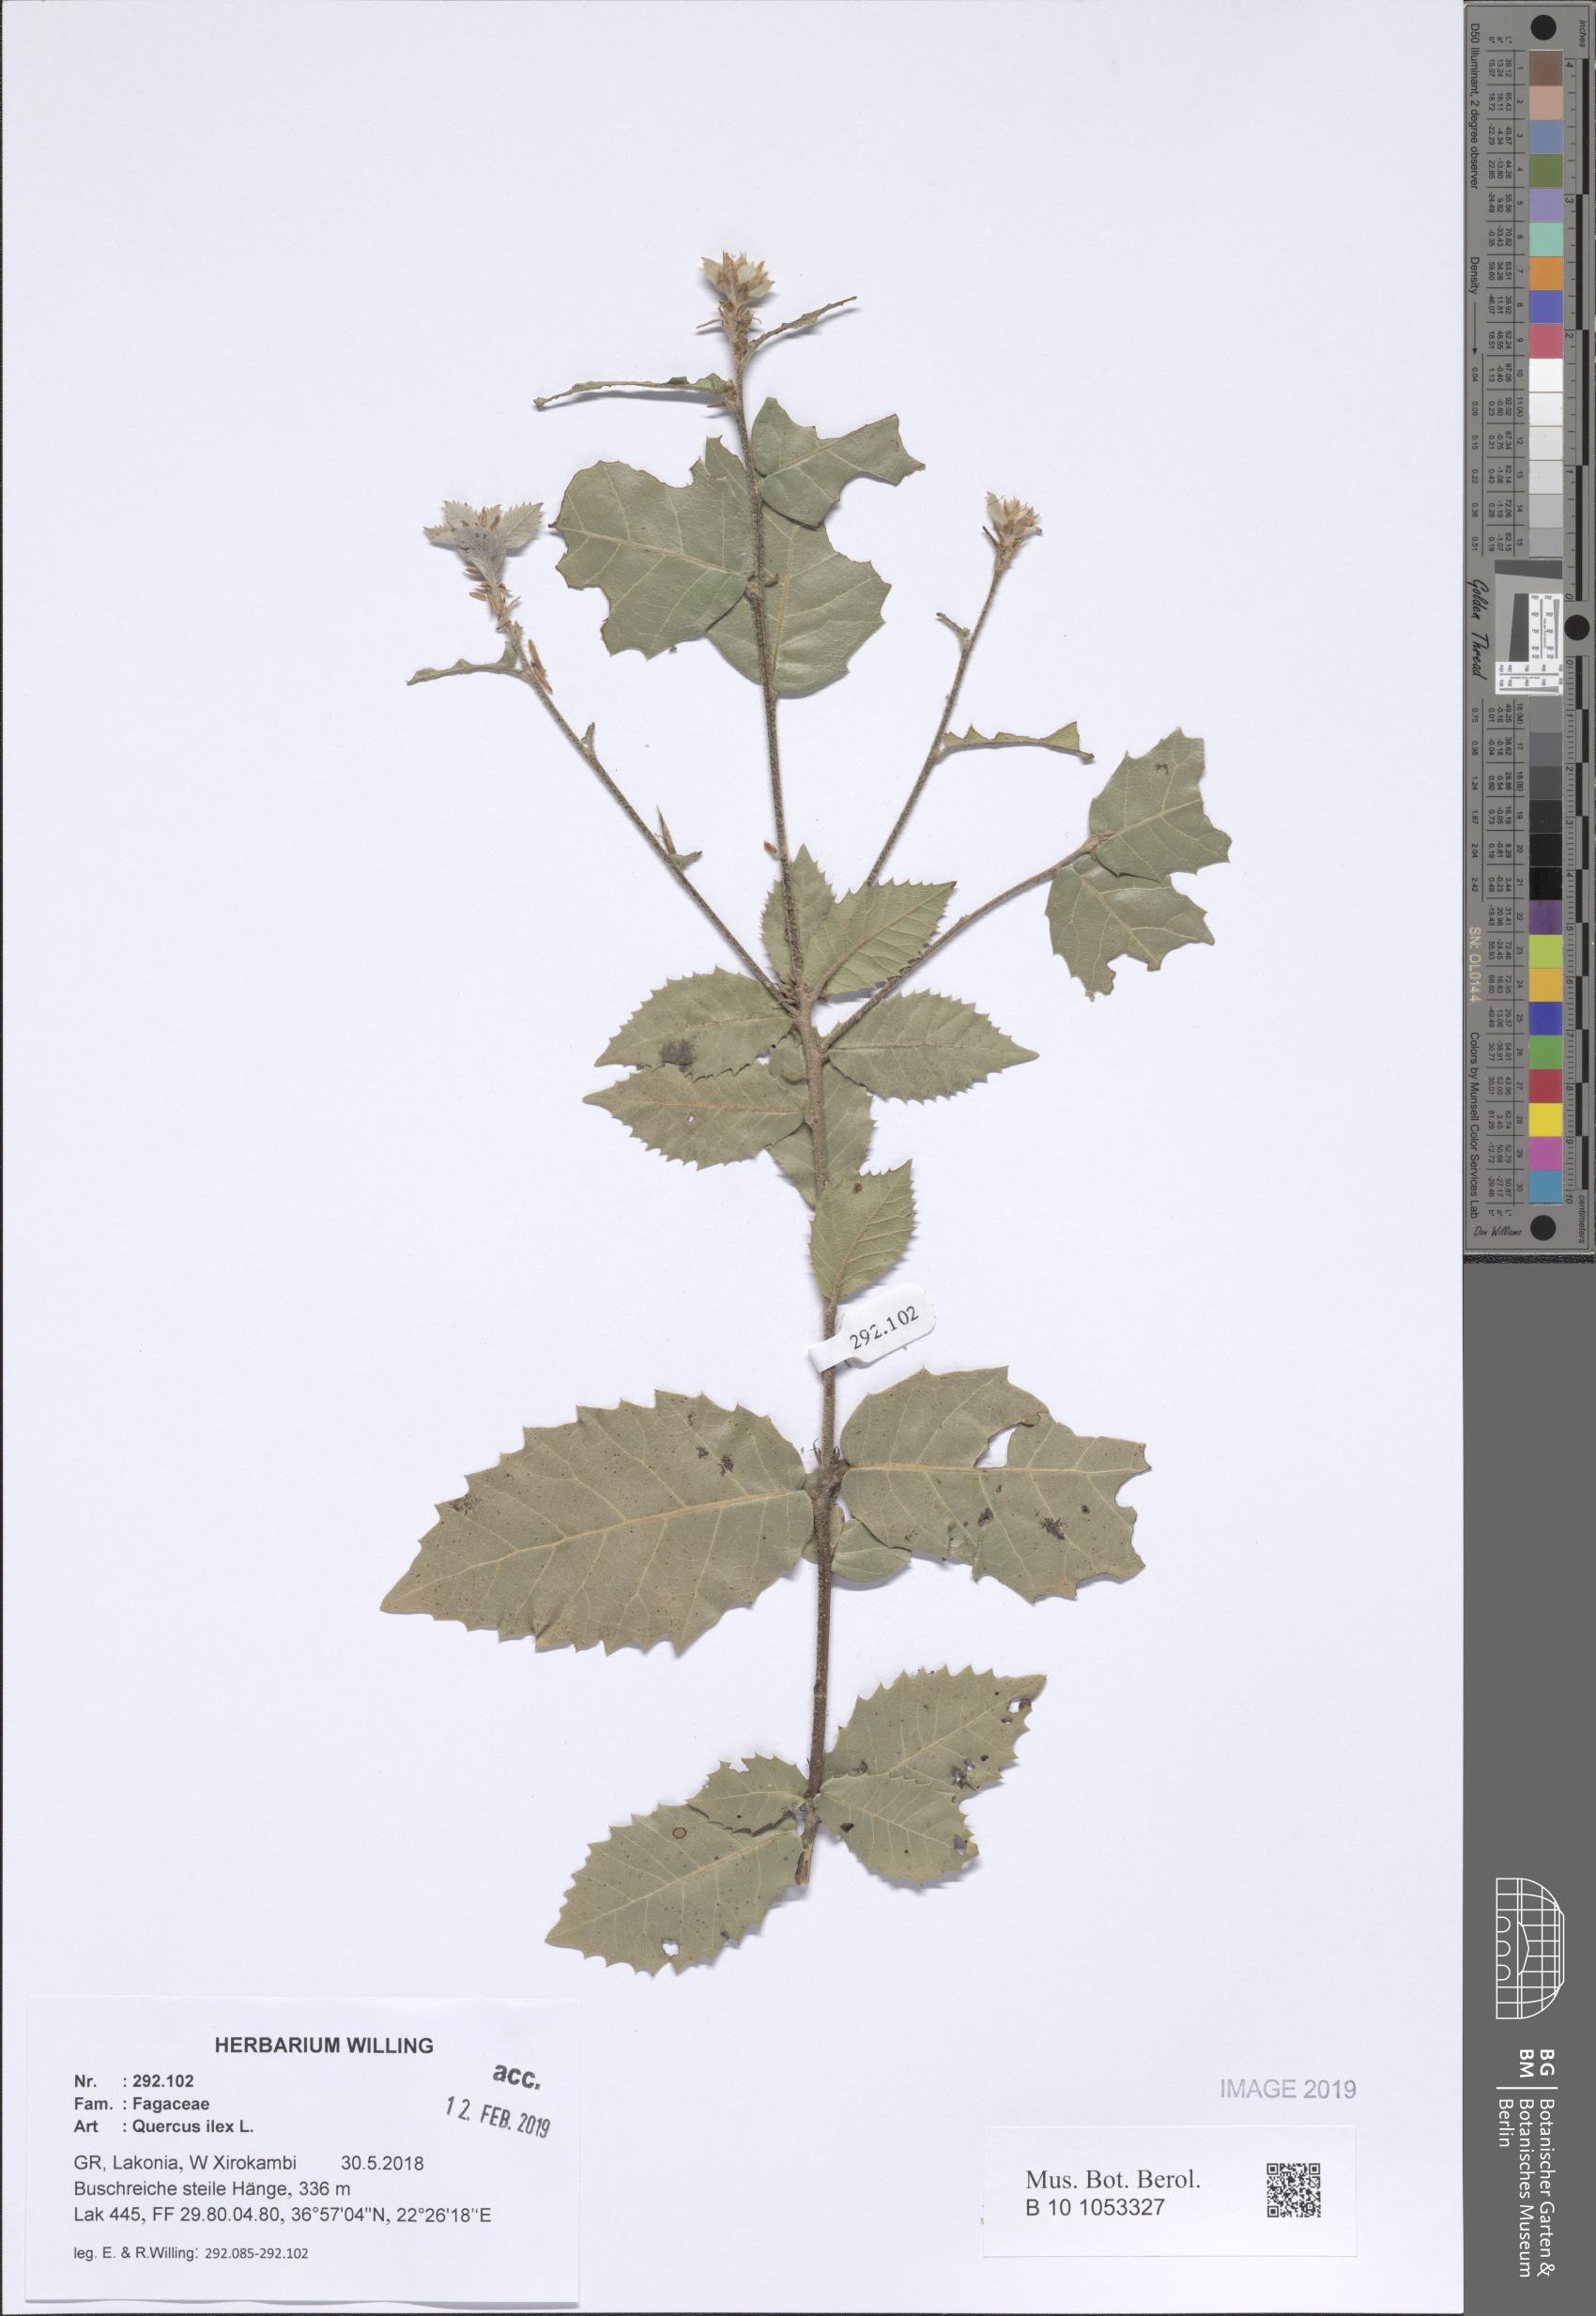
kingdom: Plantae
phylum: Tracheophyta
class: Magnoliopsida
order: Fagales
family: Fagaceae
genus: Quercus
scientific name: Quercus ilex
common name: Evergreen oak
